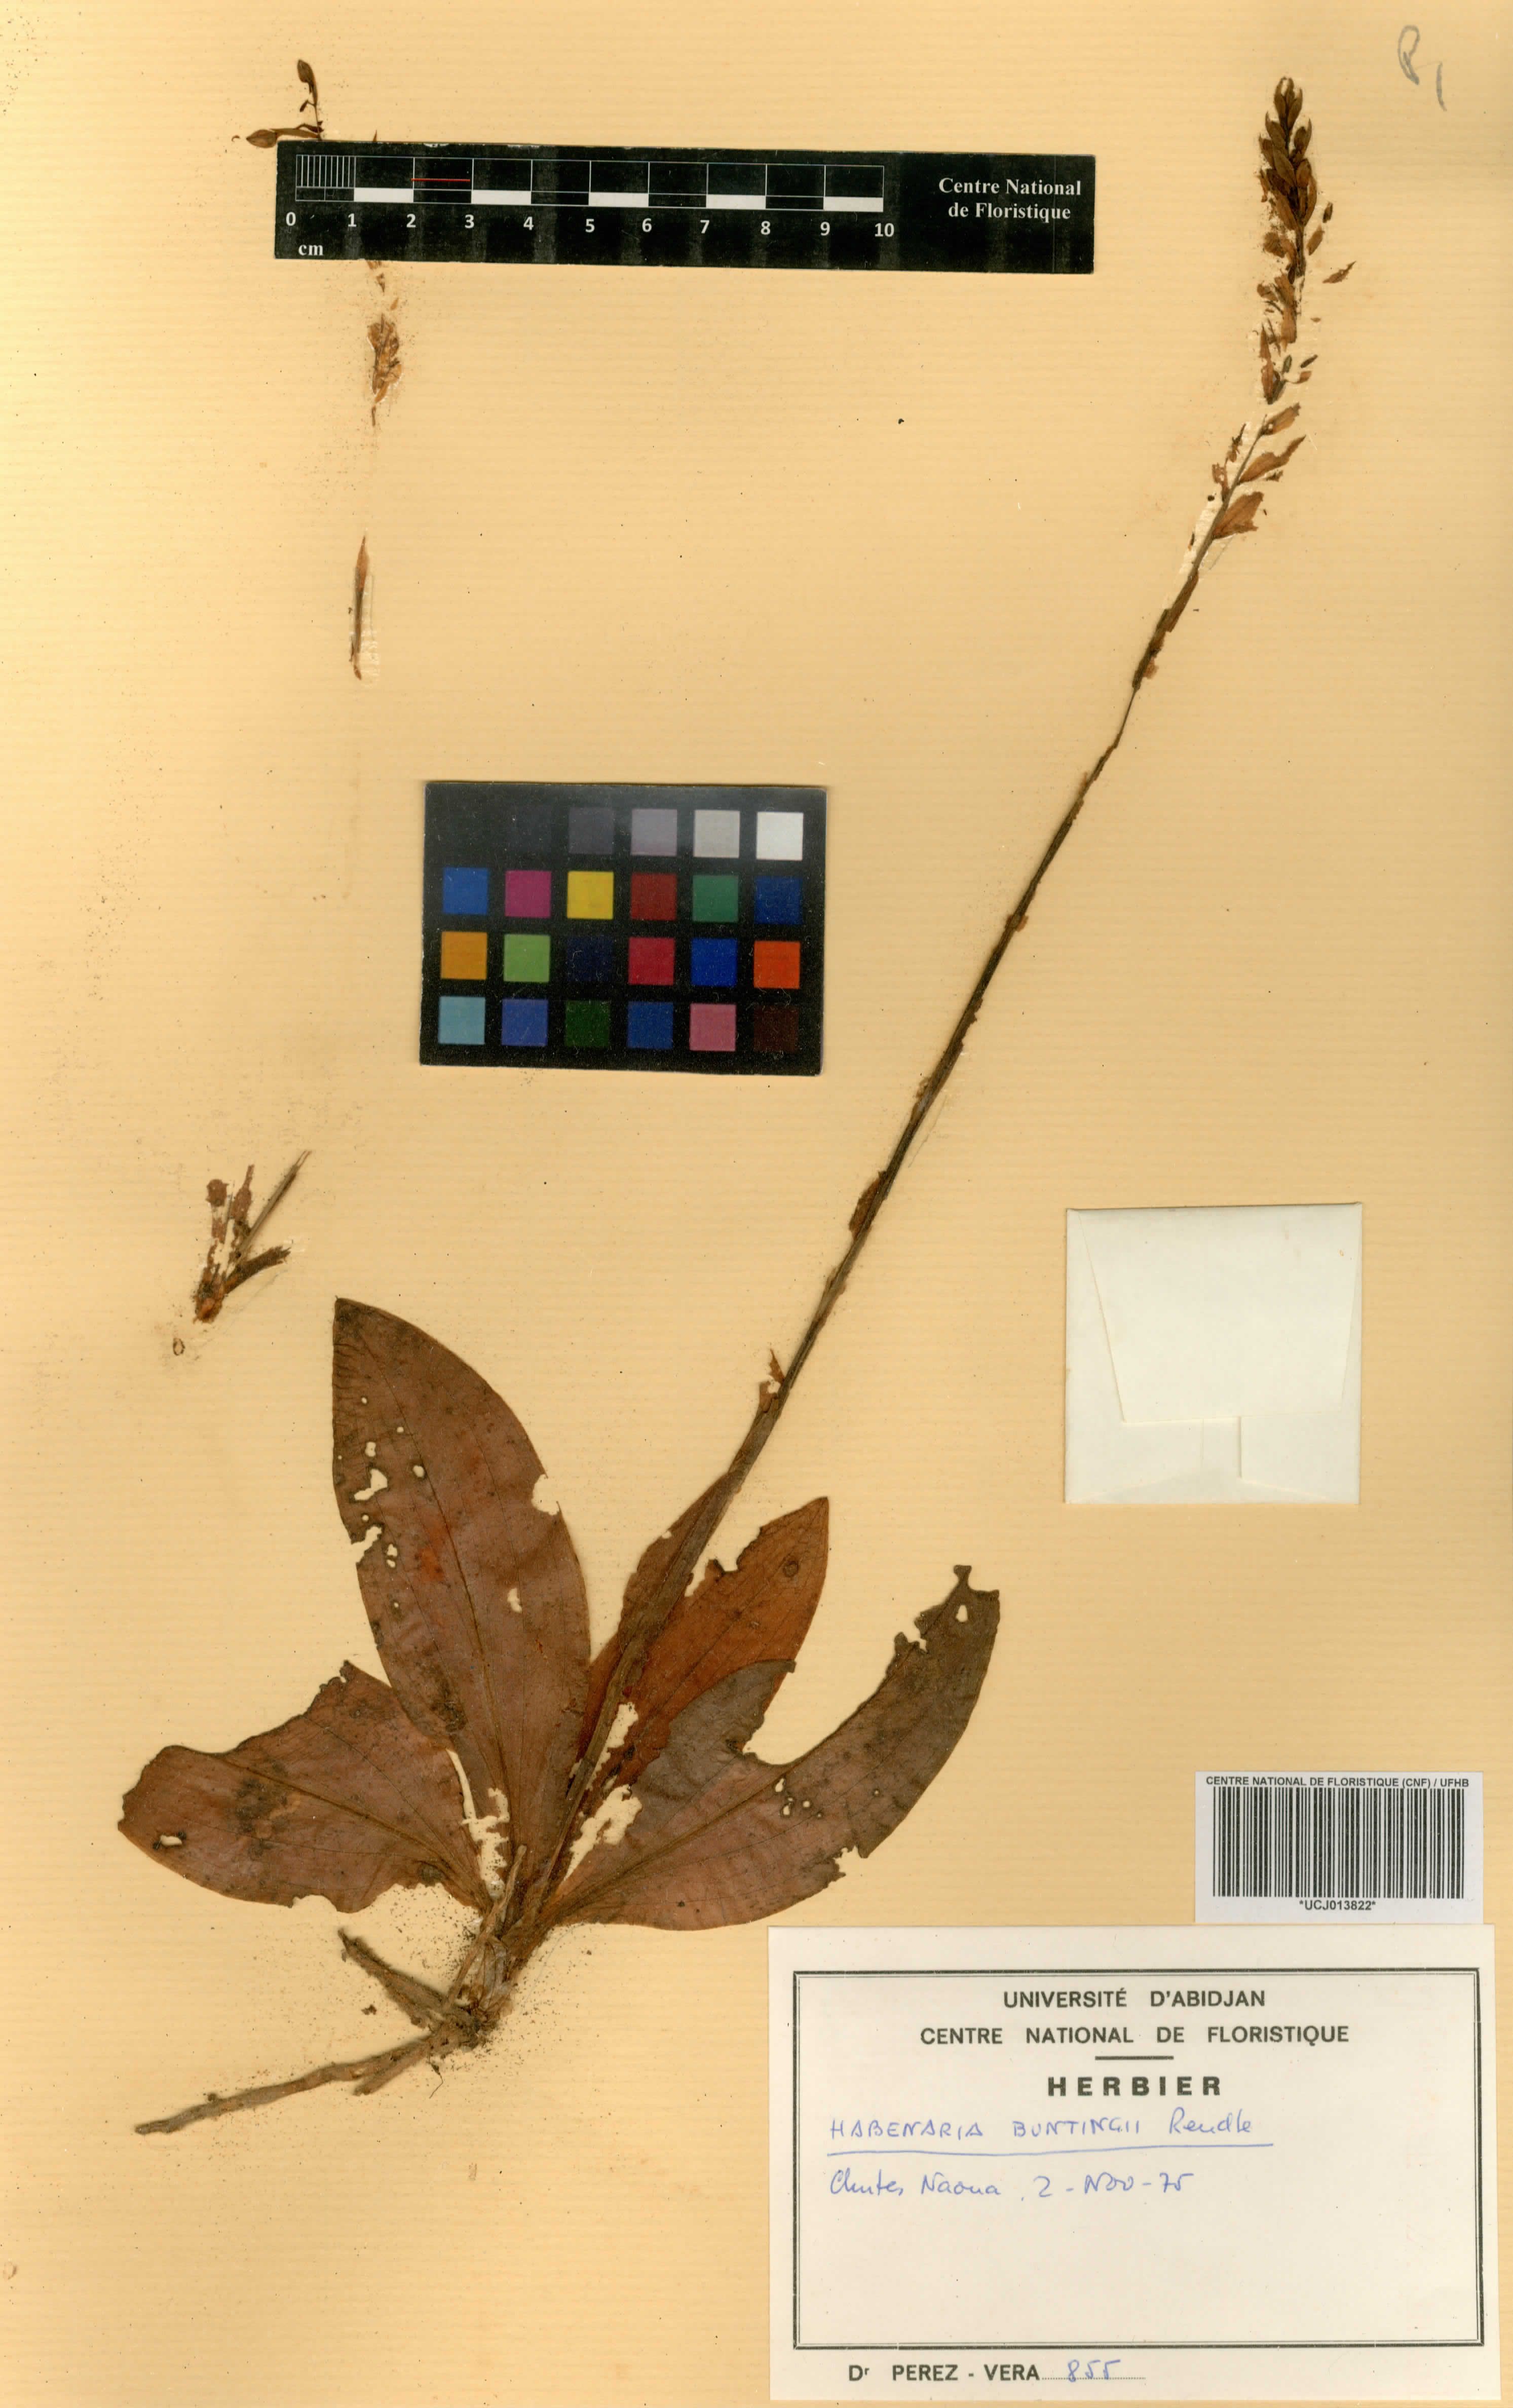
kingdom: Plantae
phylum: Tracheophyta
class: Liliopsida
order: Asparagales
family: Orchidaceae
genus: Habenaria
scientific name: Habenaria physuriformis
